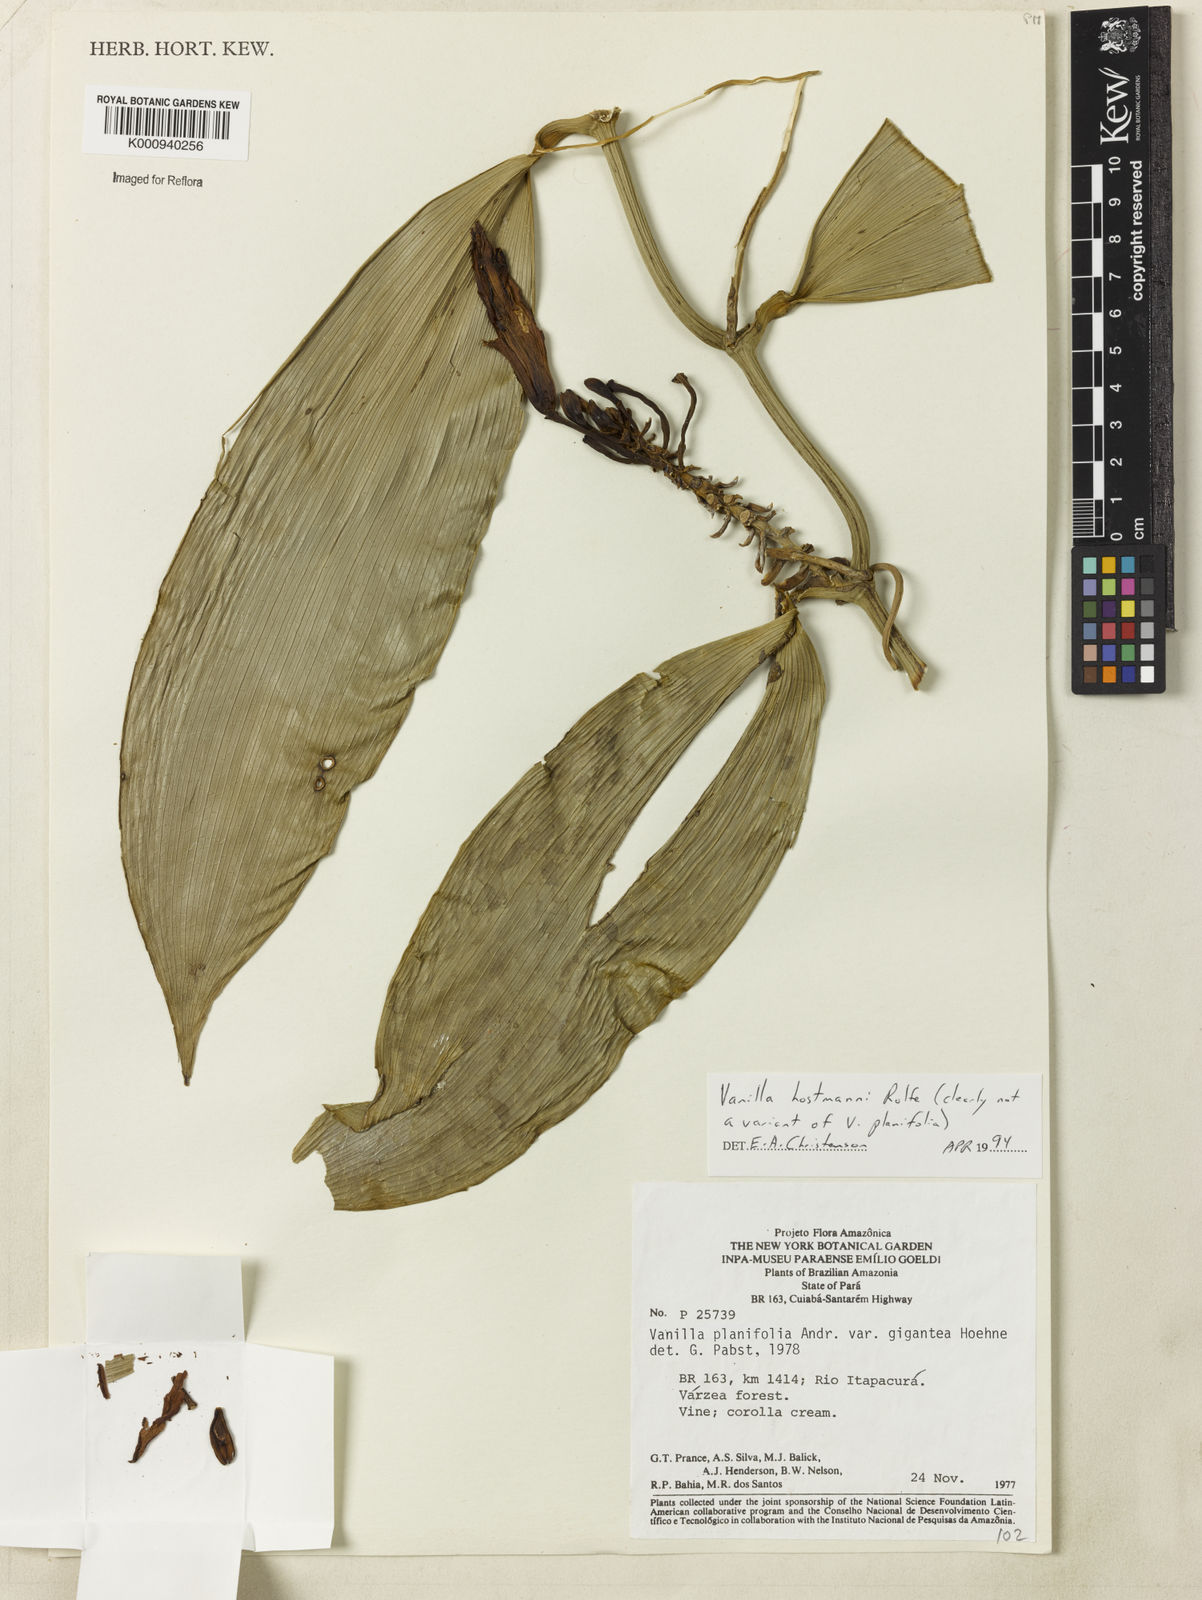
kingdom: Plantae
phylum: Tracheophyta
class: Liliopsida
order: Asparagales
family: Orchidaceae
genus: Vanilla
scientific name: Vanilla hostmannii
